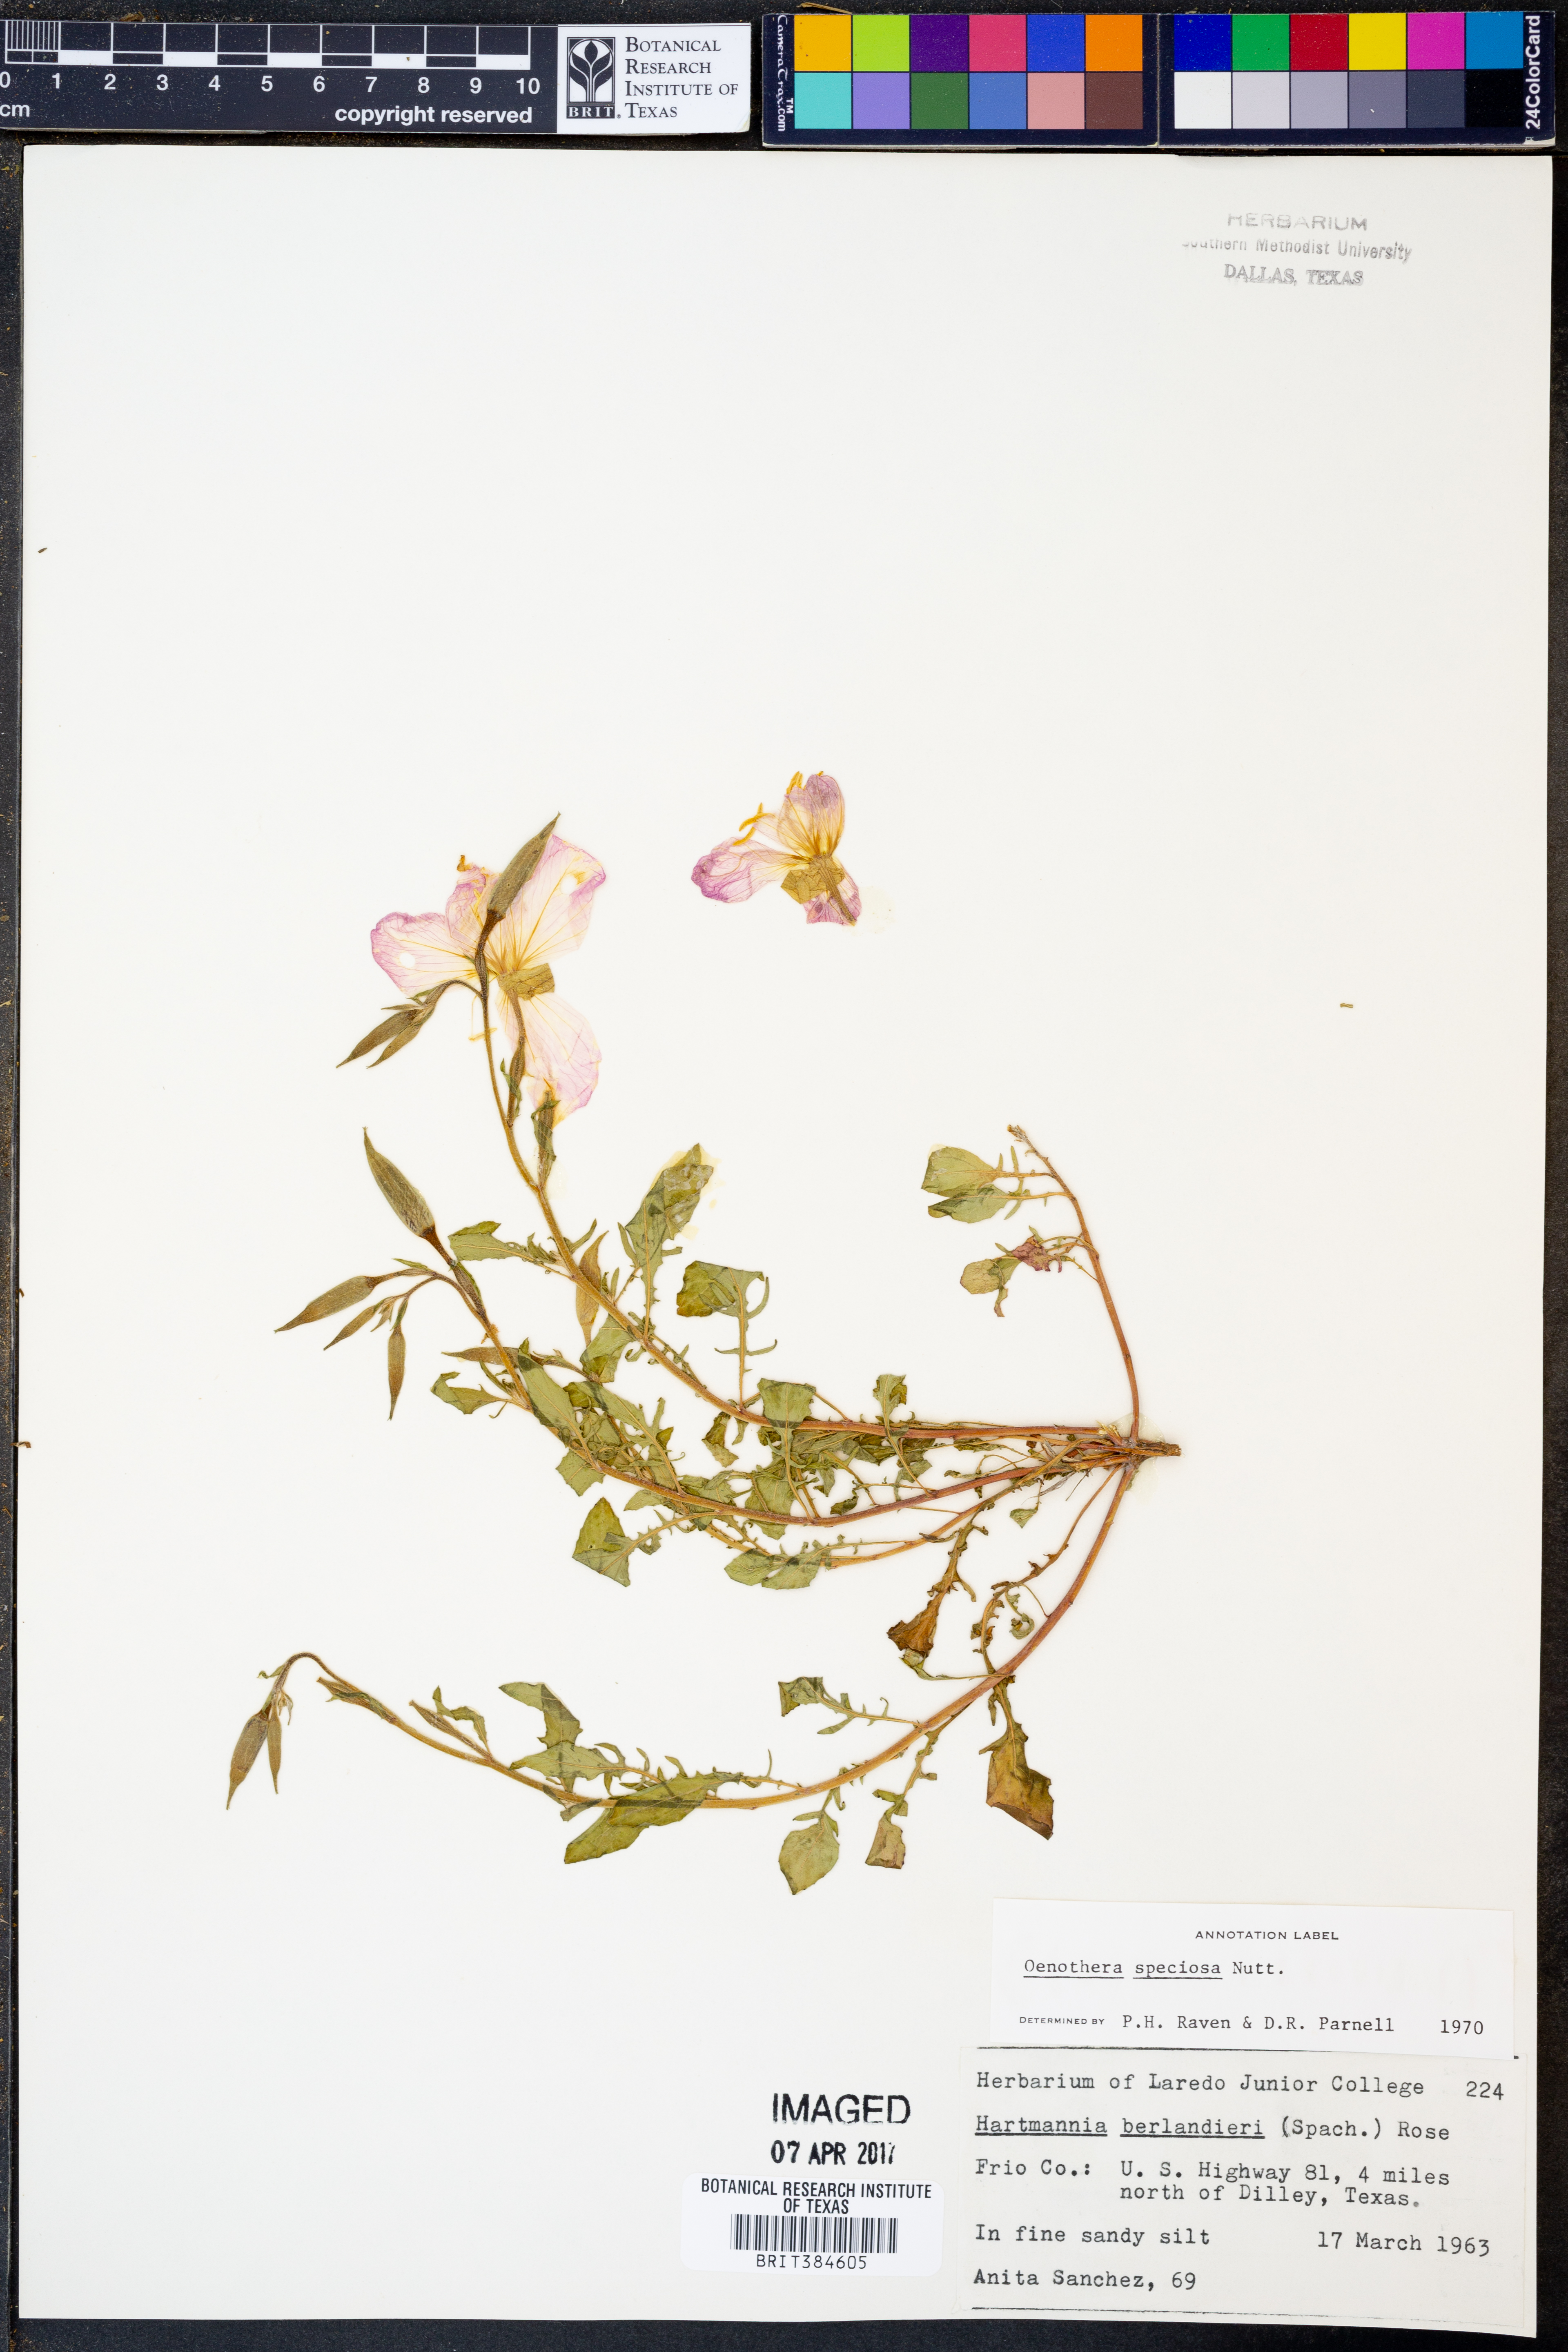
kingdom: Plantae
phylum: Tracheophyta
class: Magnoliopsida
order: Myrtales
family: Onagraceae
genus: Oenothera
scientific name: Oenothera speciosa
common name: White evening-primrose
